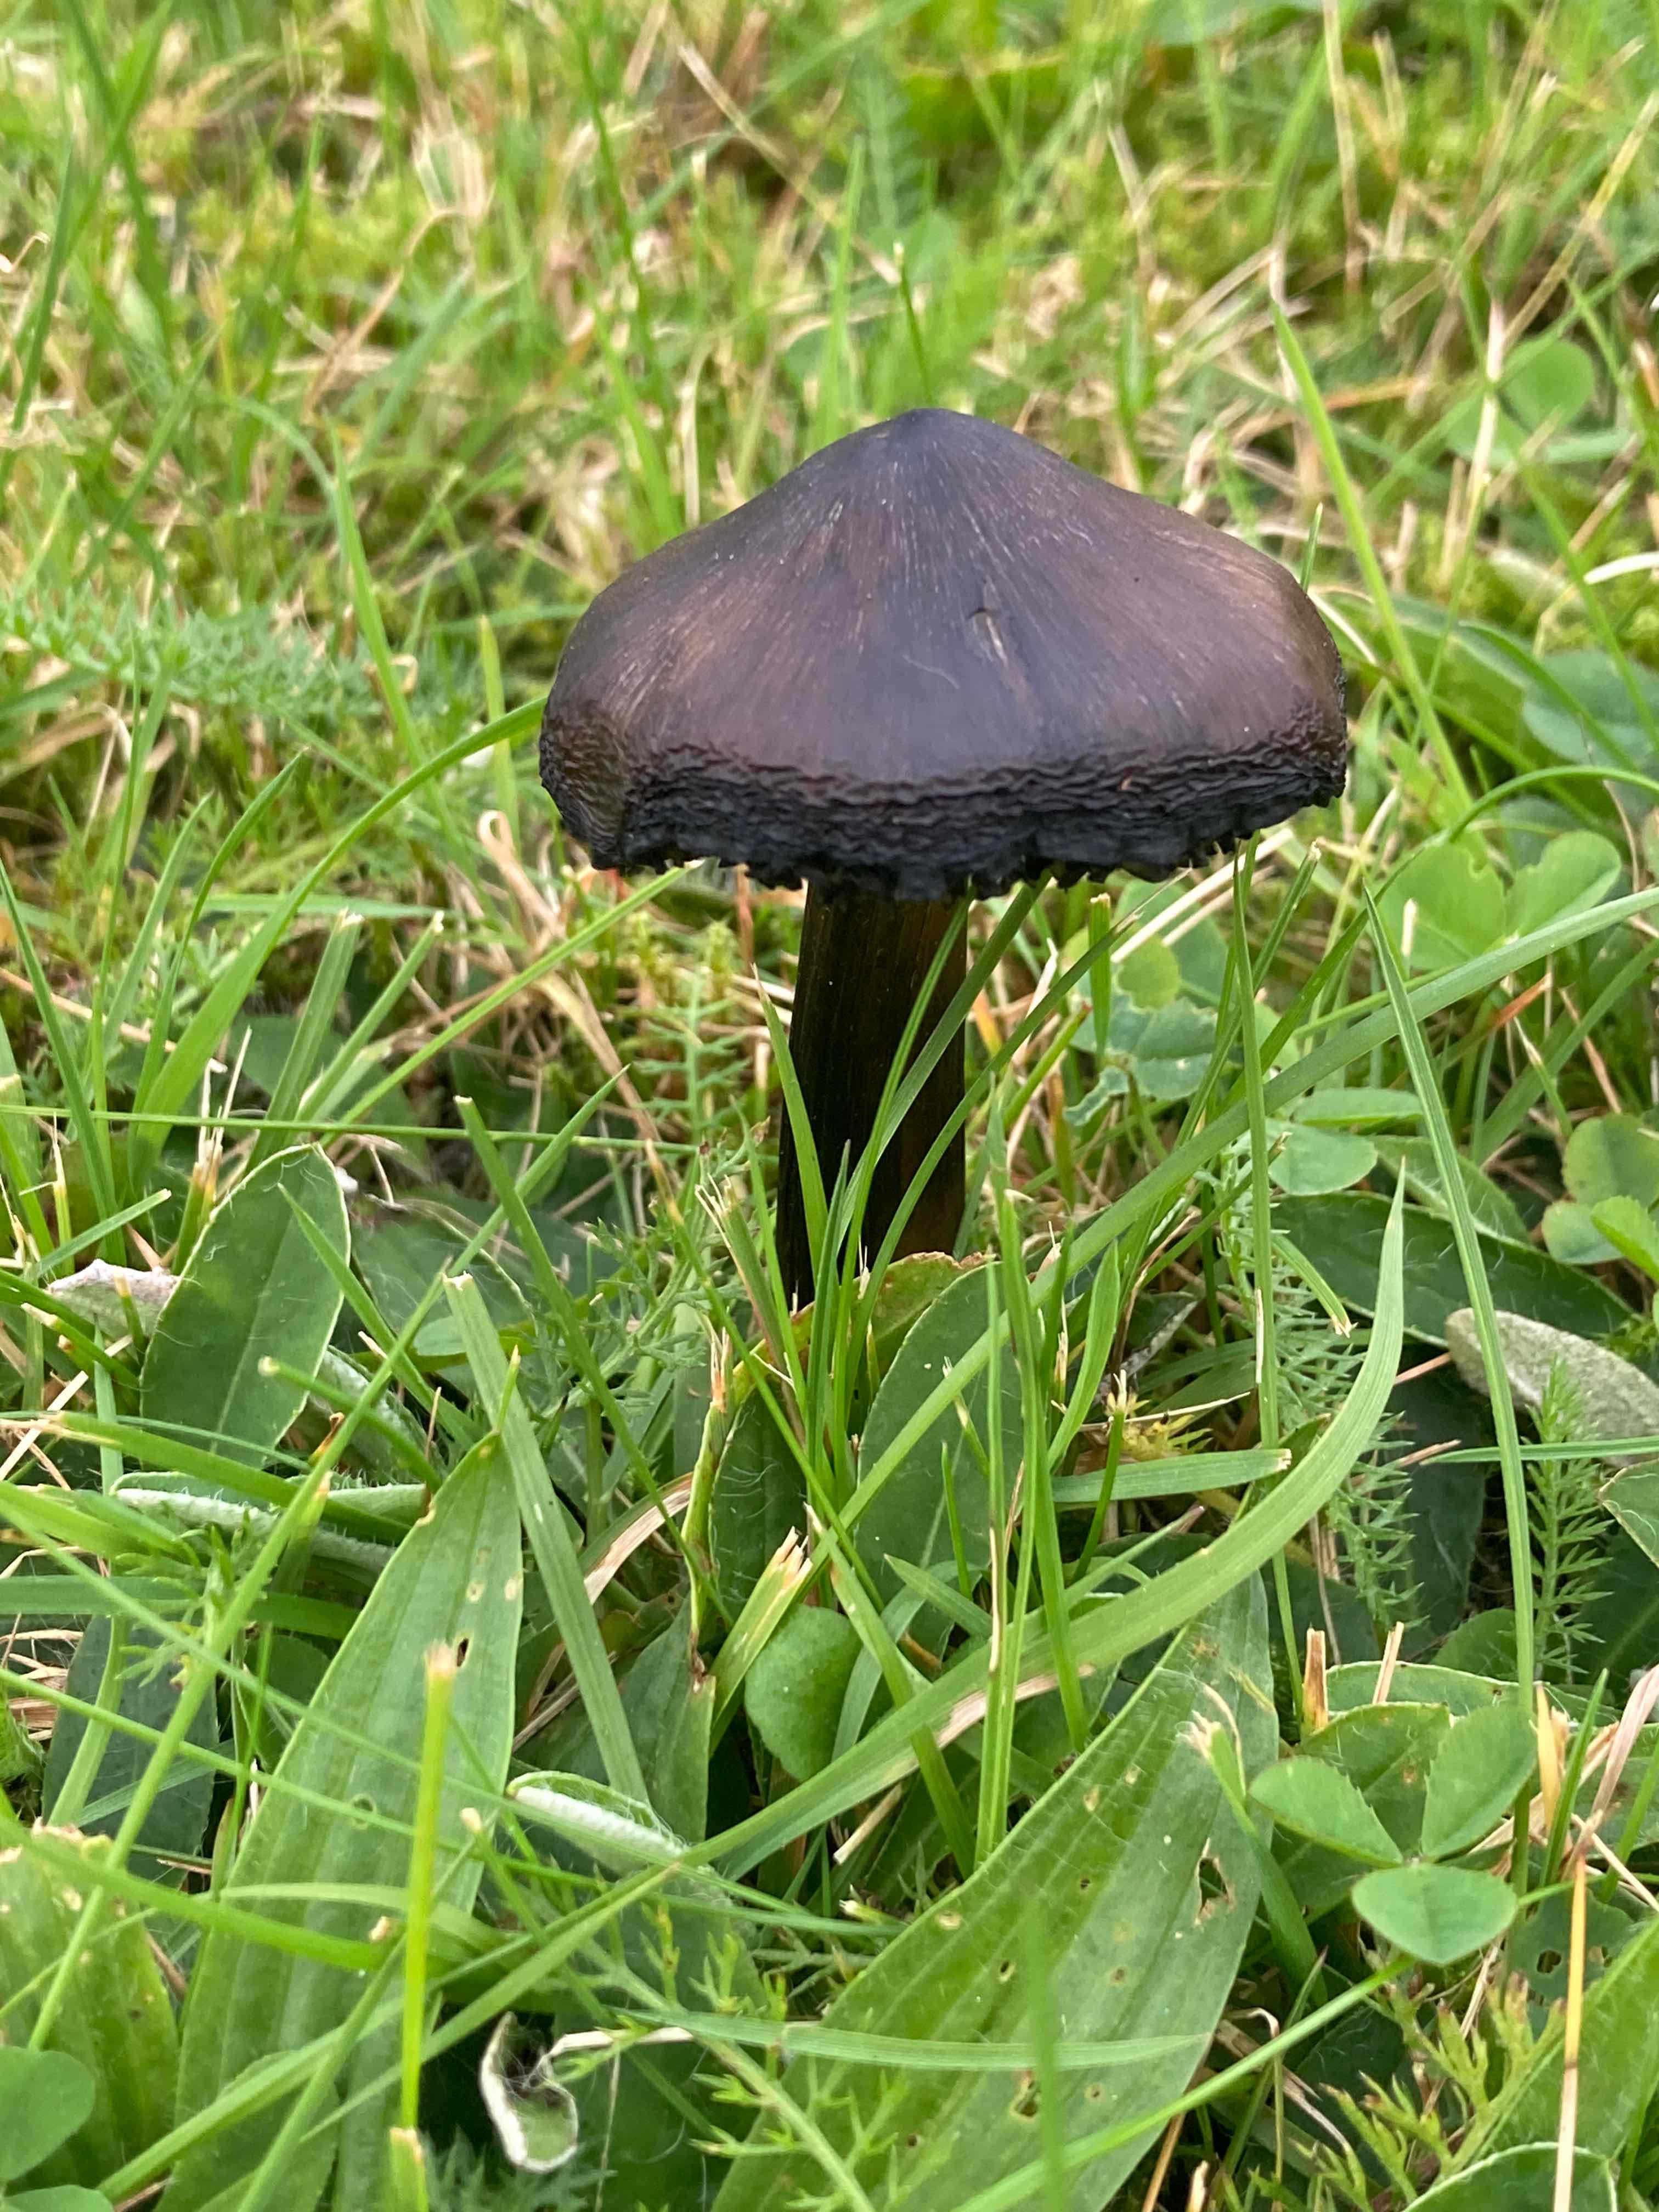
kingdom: Fungi
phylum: Basidiomycota
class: Agaricomycetes
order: Agaricales
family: Hygrophoraceae
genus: Hygrocybe
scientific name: Hygrocybe conica
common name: kegle-vokshat
